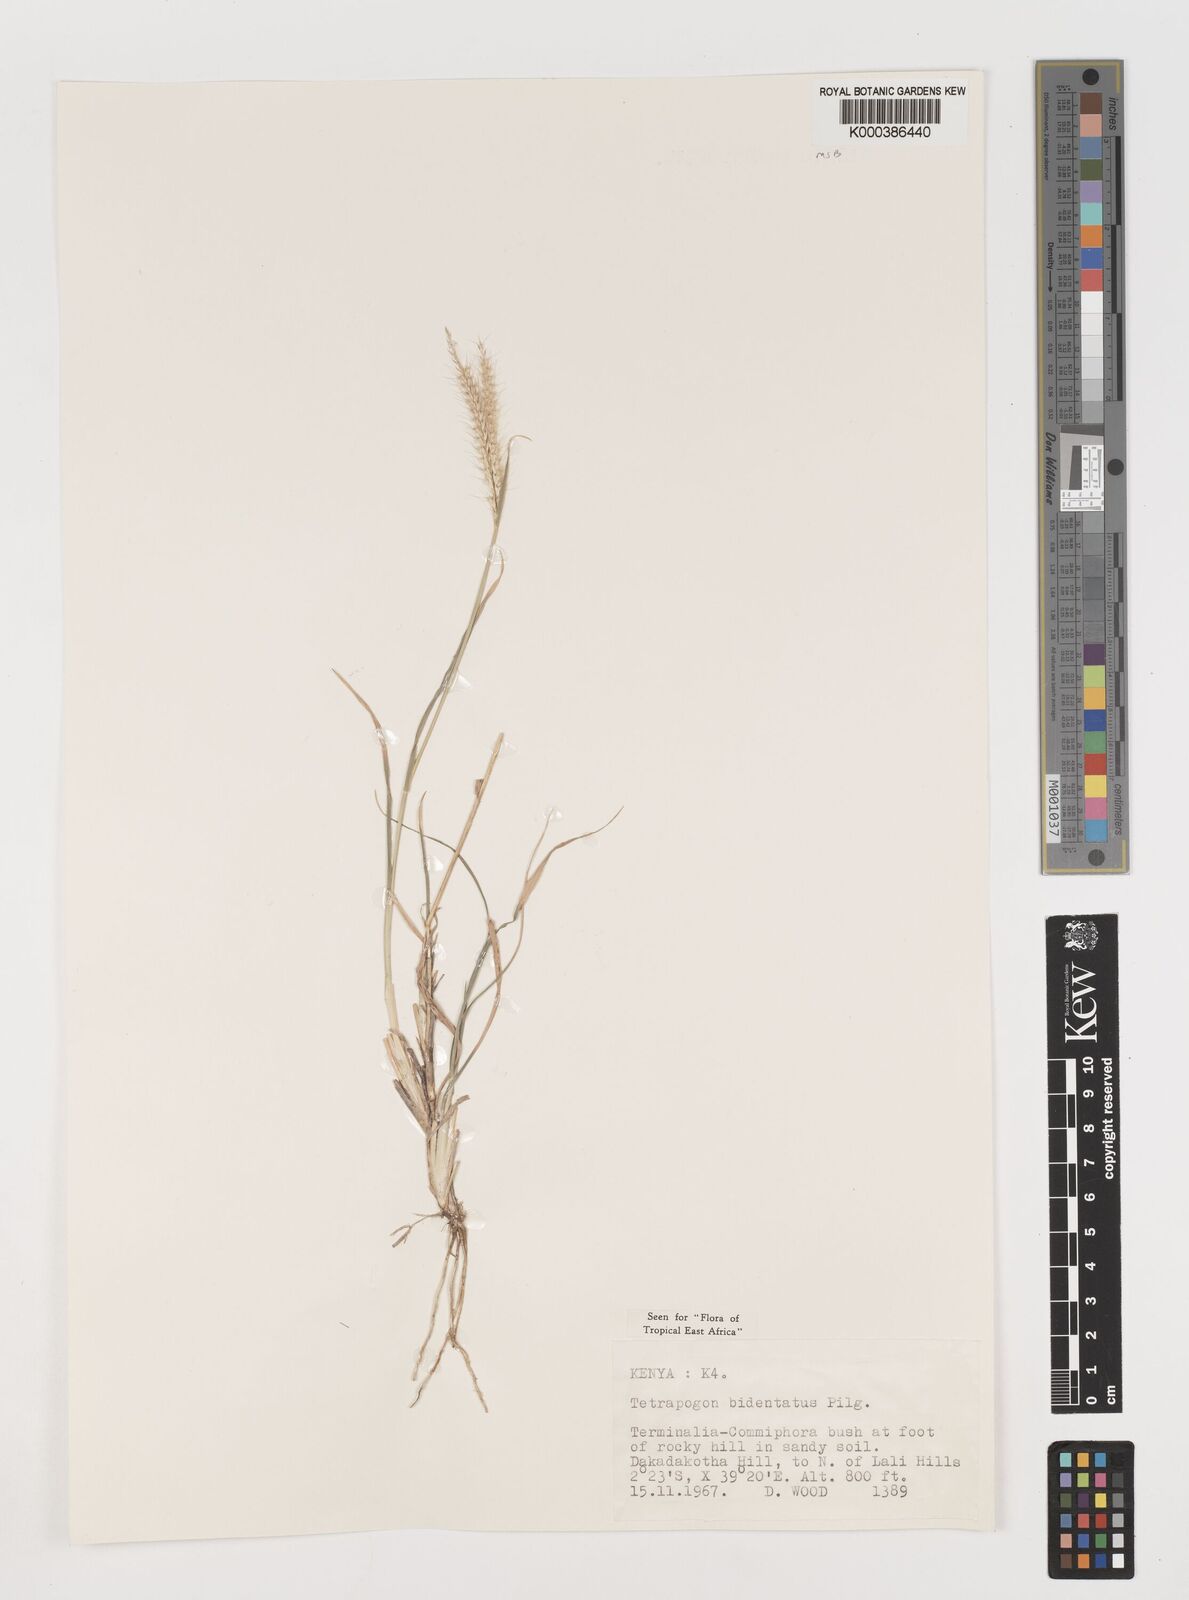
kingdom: Plantae
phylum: Tracheophyta
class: Liliopsida
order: Poales
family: Poaceae
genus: Tetrapogon
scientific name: Tetrapogon bidentatus
